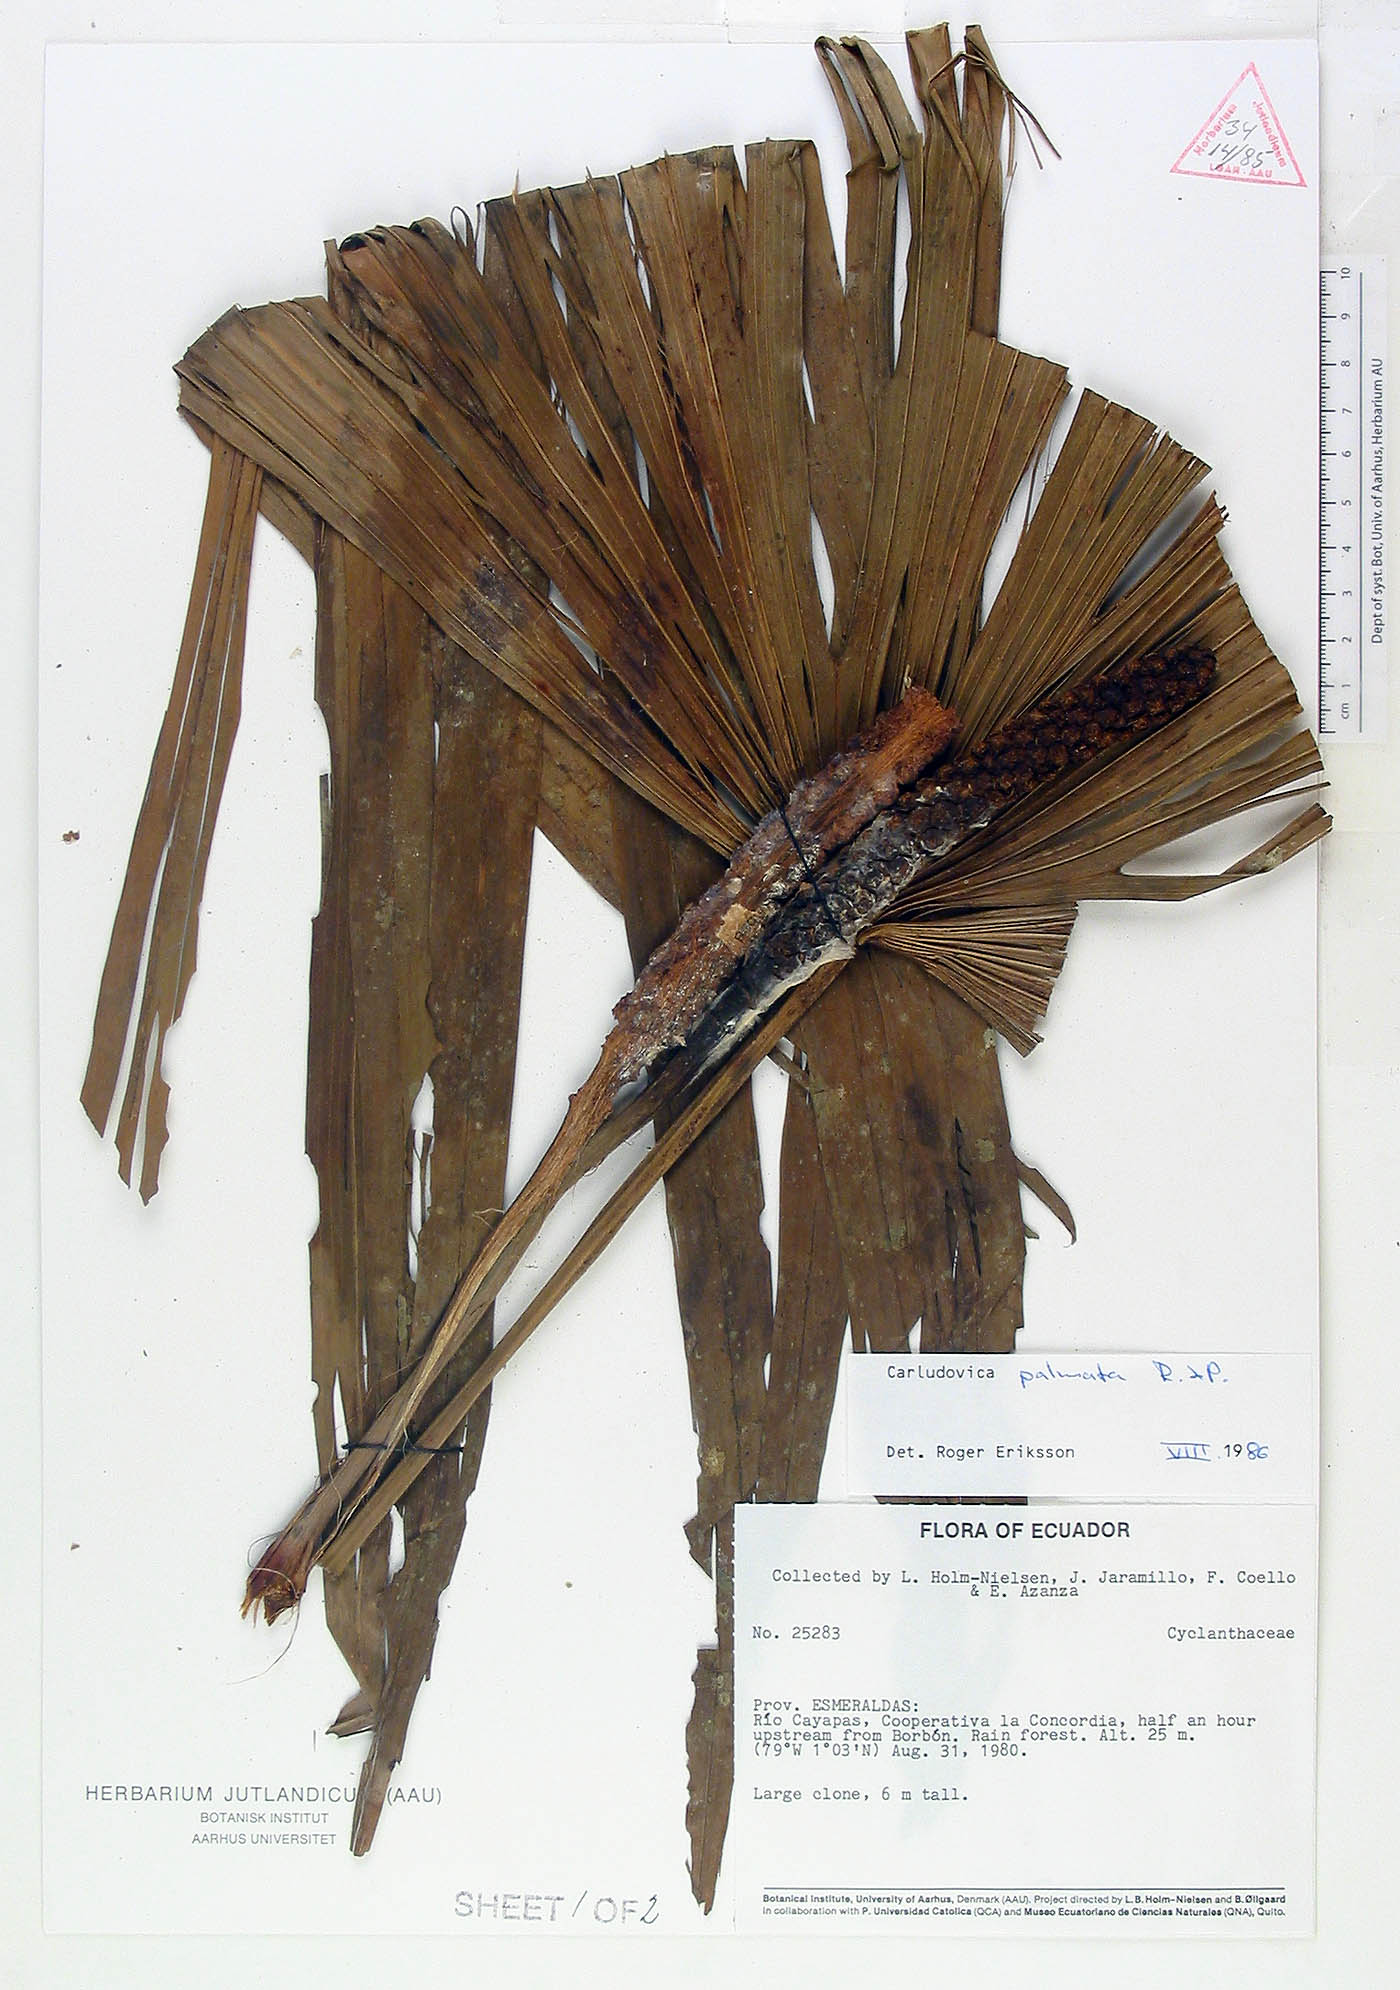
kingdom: Plantae
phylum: Tracheophyta
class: Liliopsida
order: Pandanales
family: Cyclanthaceae
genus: Carludovica
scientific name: Carludovica palmata
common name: Panama hat plant
